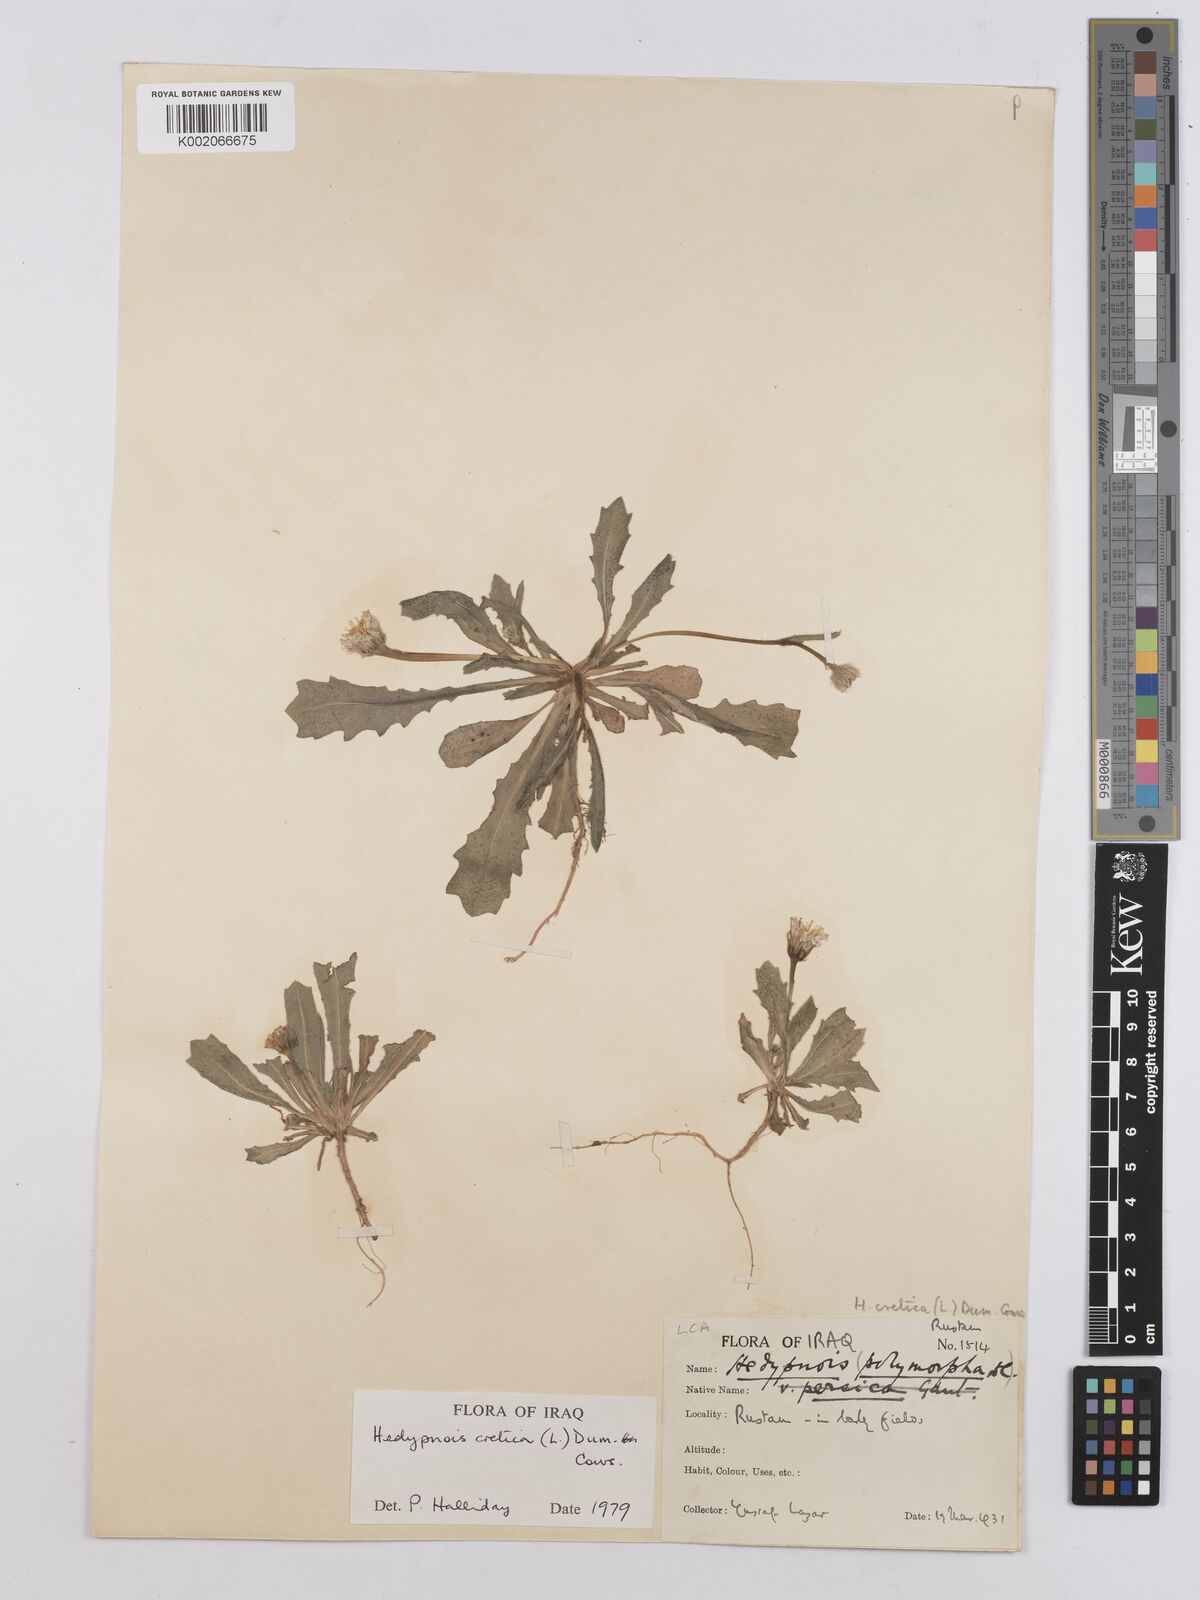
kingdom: Plantae
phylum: Tracheophyta
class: Magnoliopsida
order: Asterales
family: Asteraceae
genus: Hedypnois
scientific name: Hedypnois cretica
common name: Scaly hawkbit
